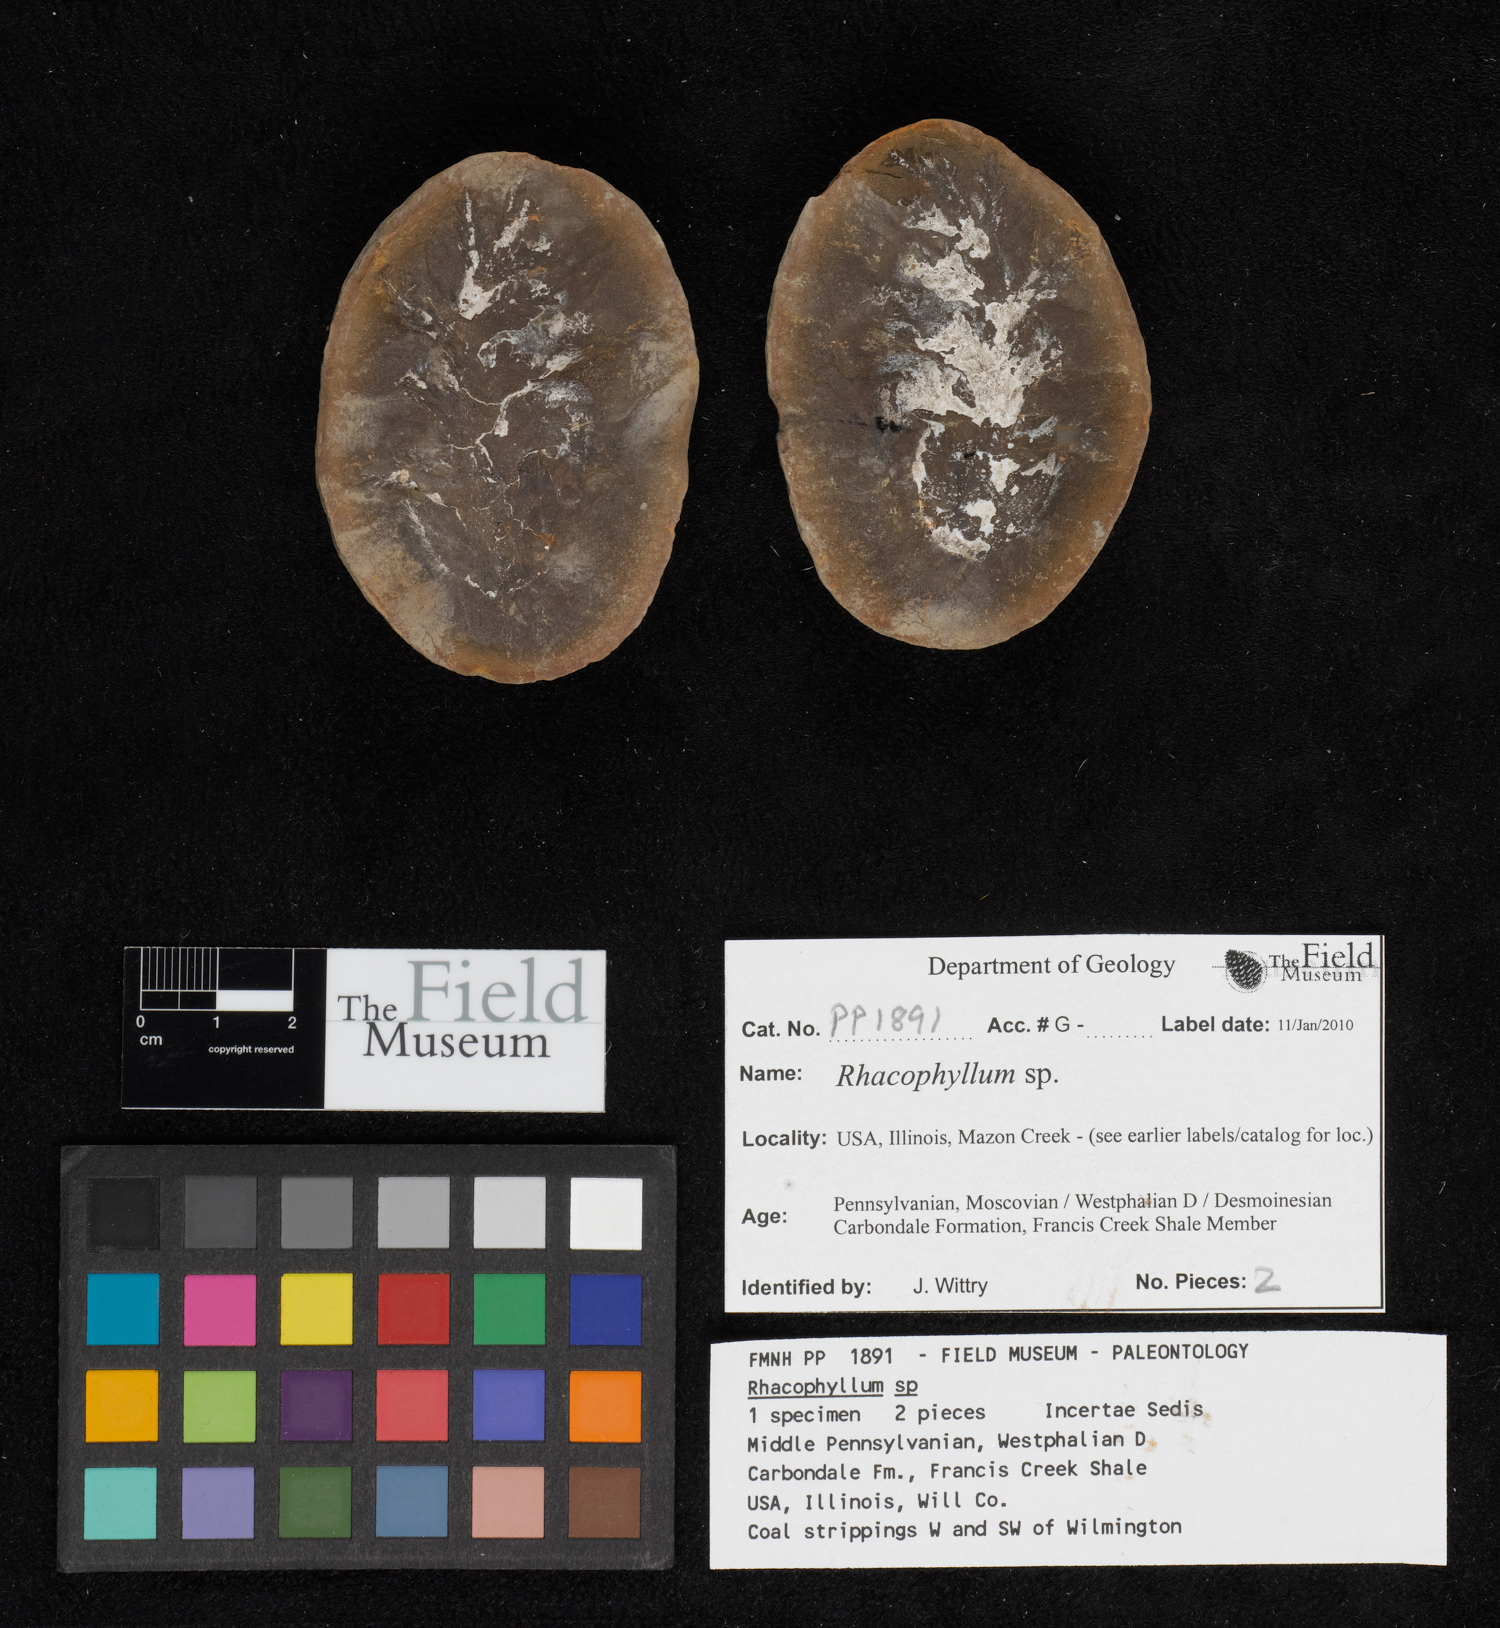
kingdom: Plantae
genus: Rhacophyllum
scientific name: Rhacophyllum
